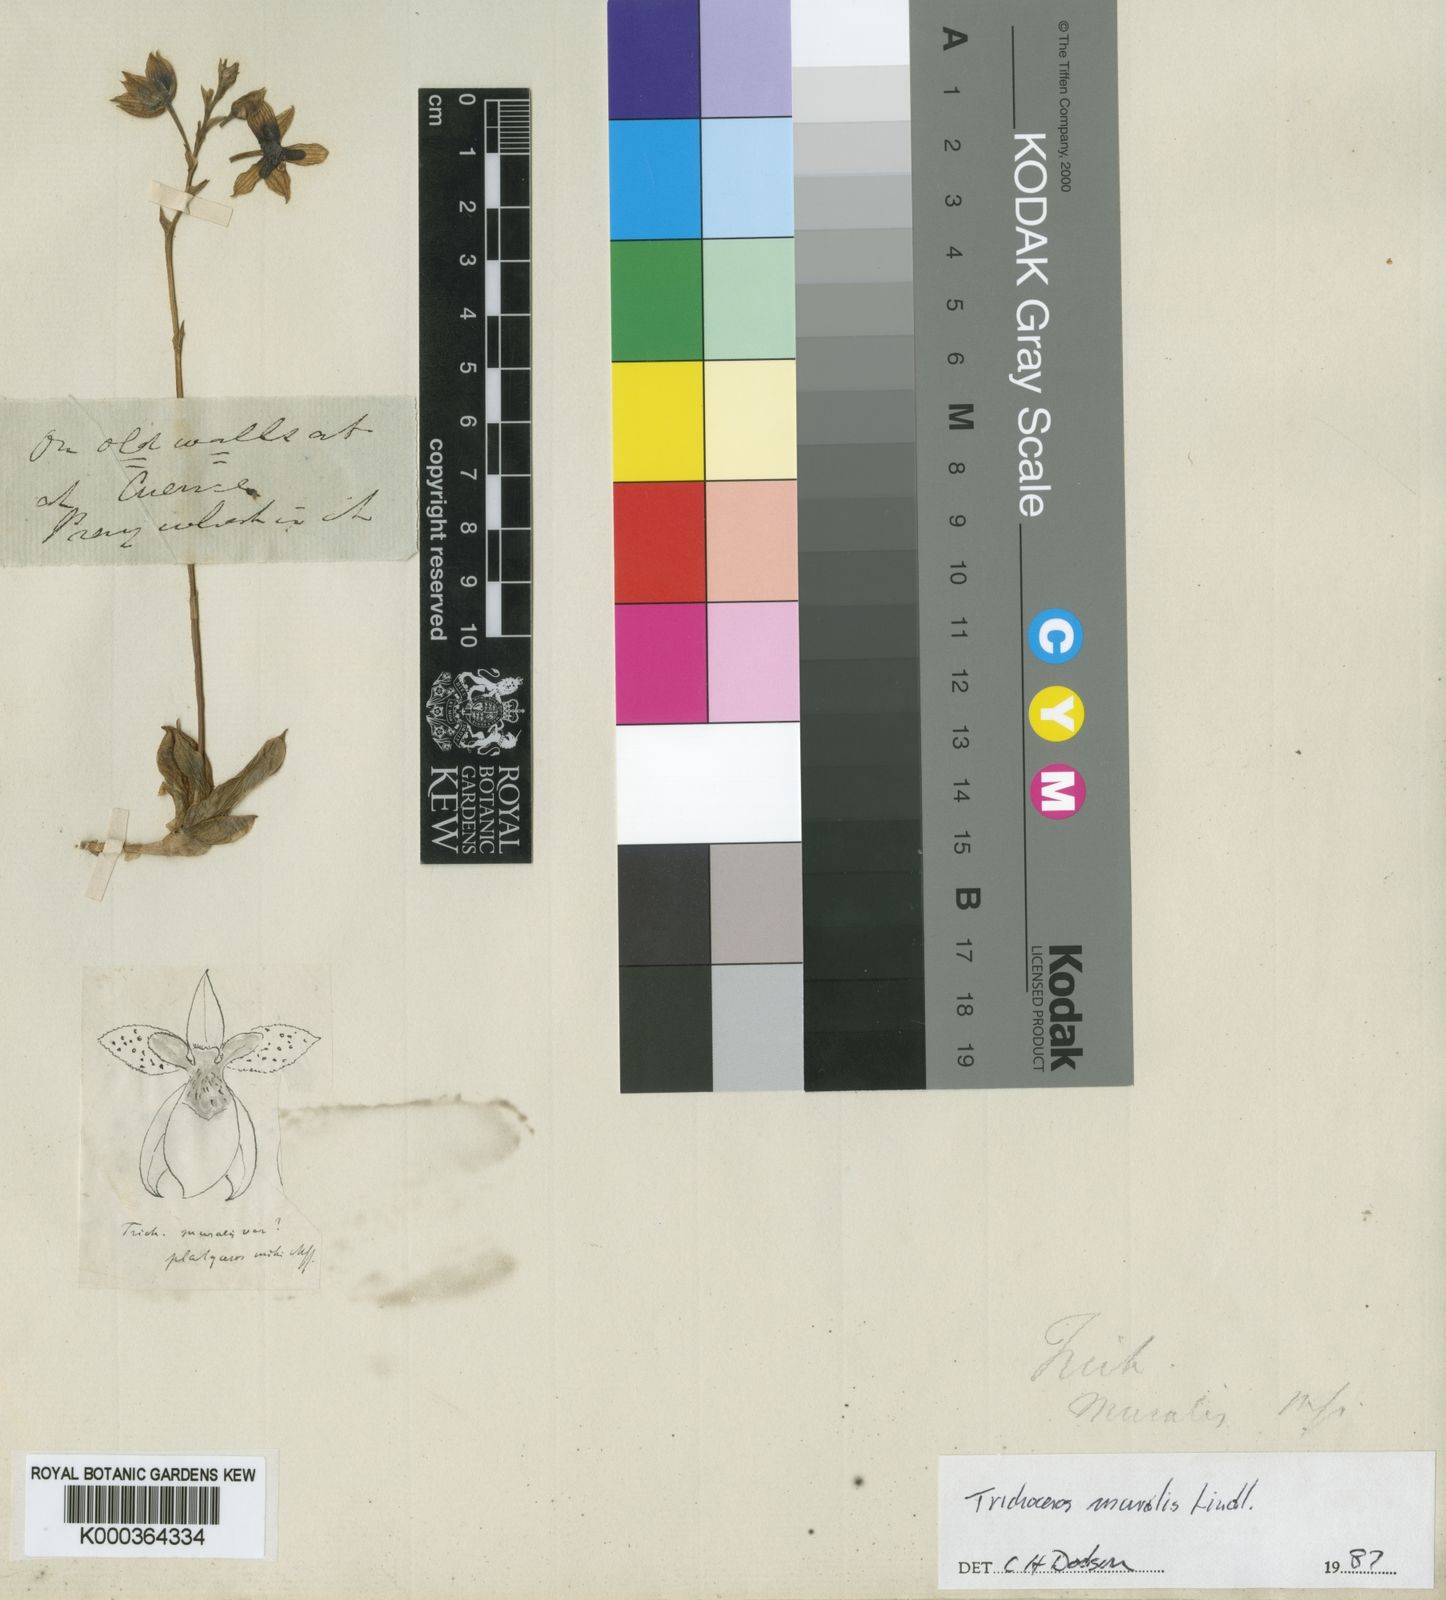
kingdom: Plantae
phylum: Tracheophyta
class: Liliopsida
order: Asparagales
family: Orchidaceae
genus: Trichoceros
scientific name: Trichoceros muralis
